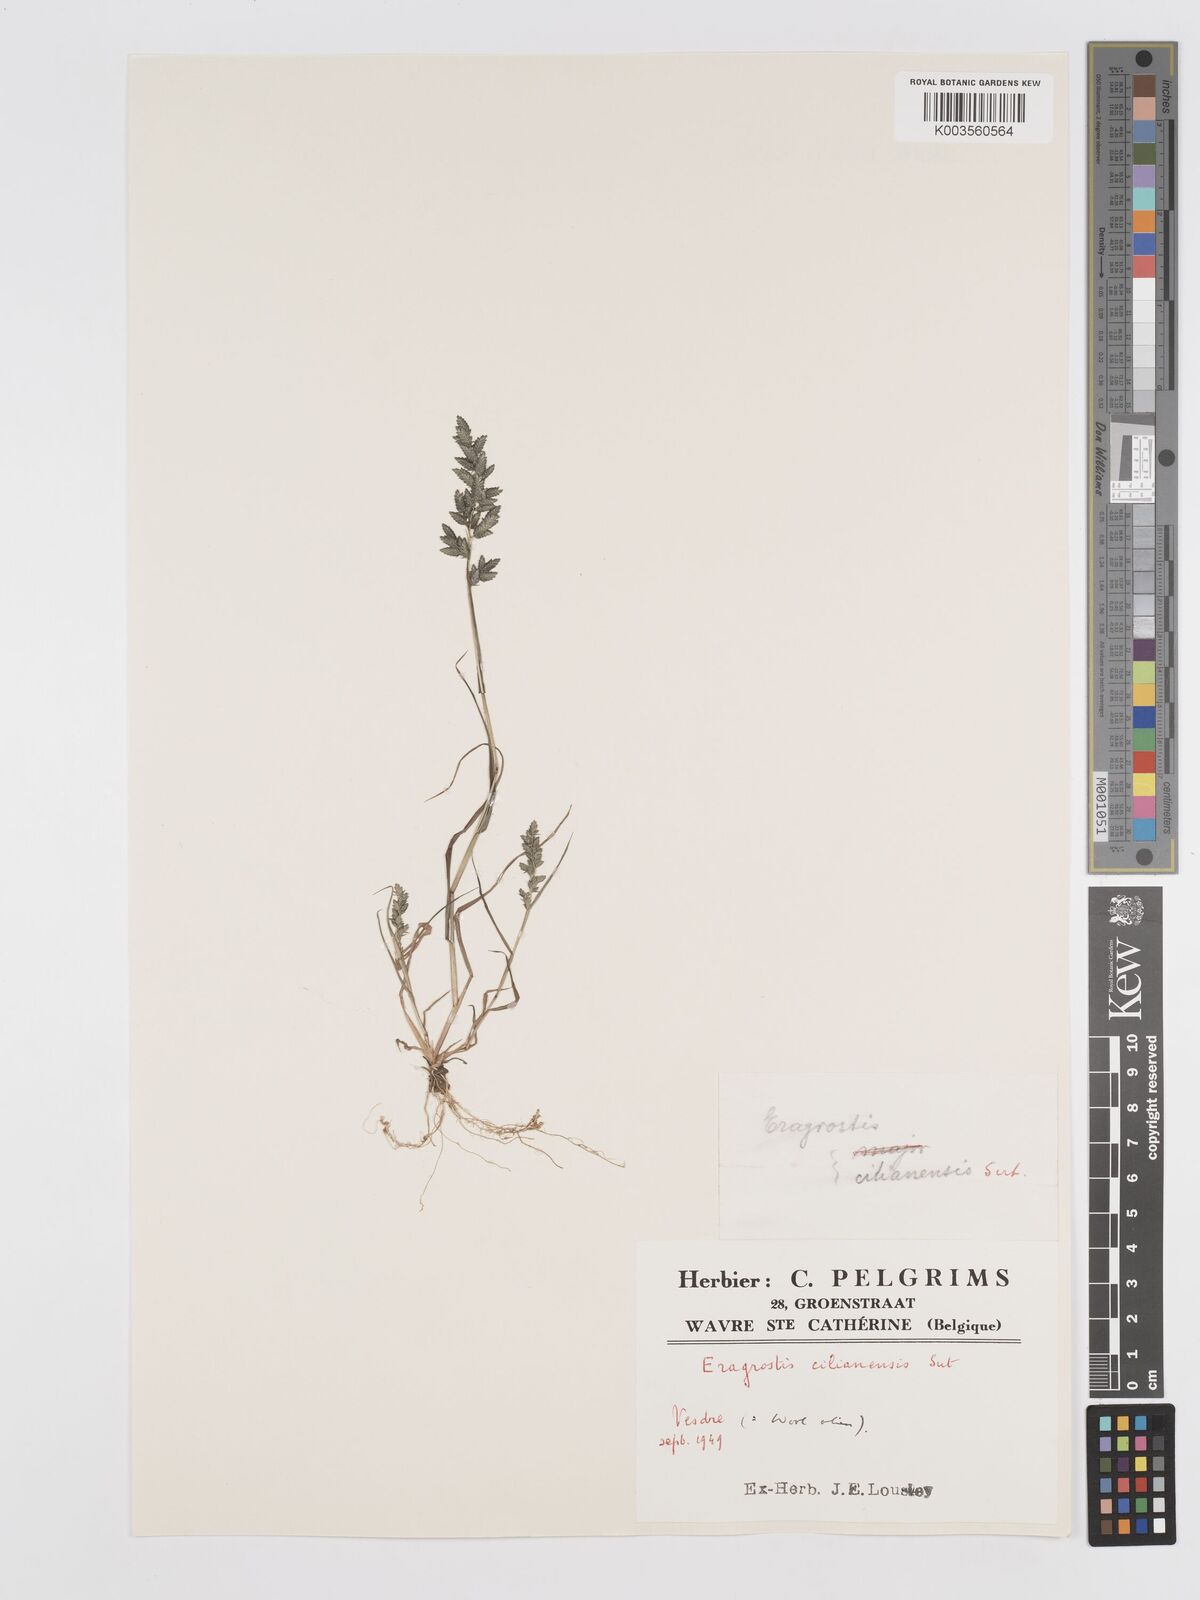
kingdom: Plantae
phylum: Tracheophyta
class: Liliopsida
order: Poales
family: Poaceae
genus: Eragrostis
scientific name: Eragrostis cilianensis
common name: Stinkgrass
